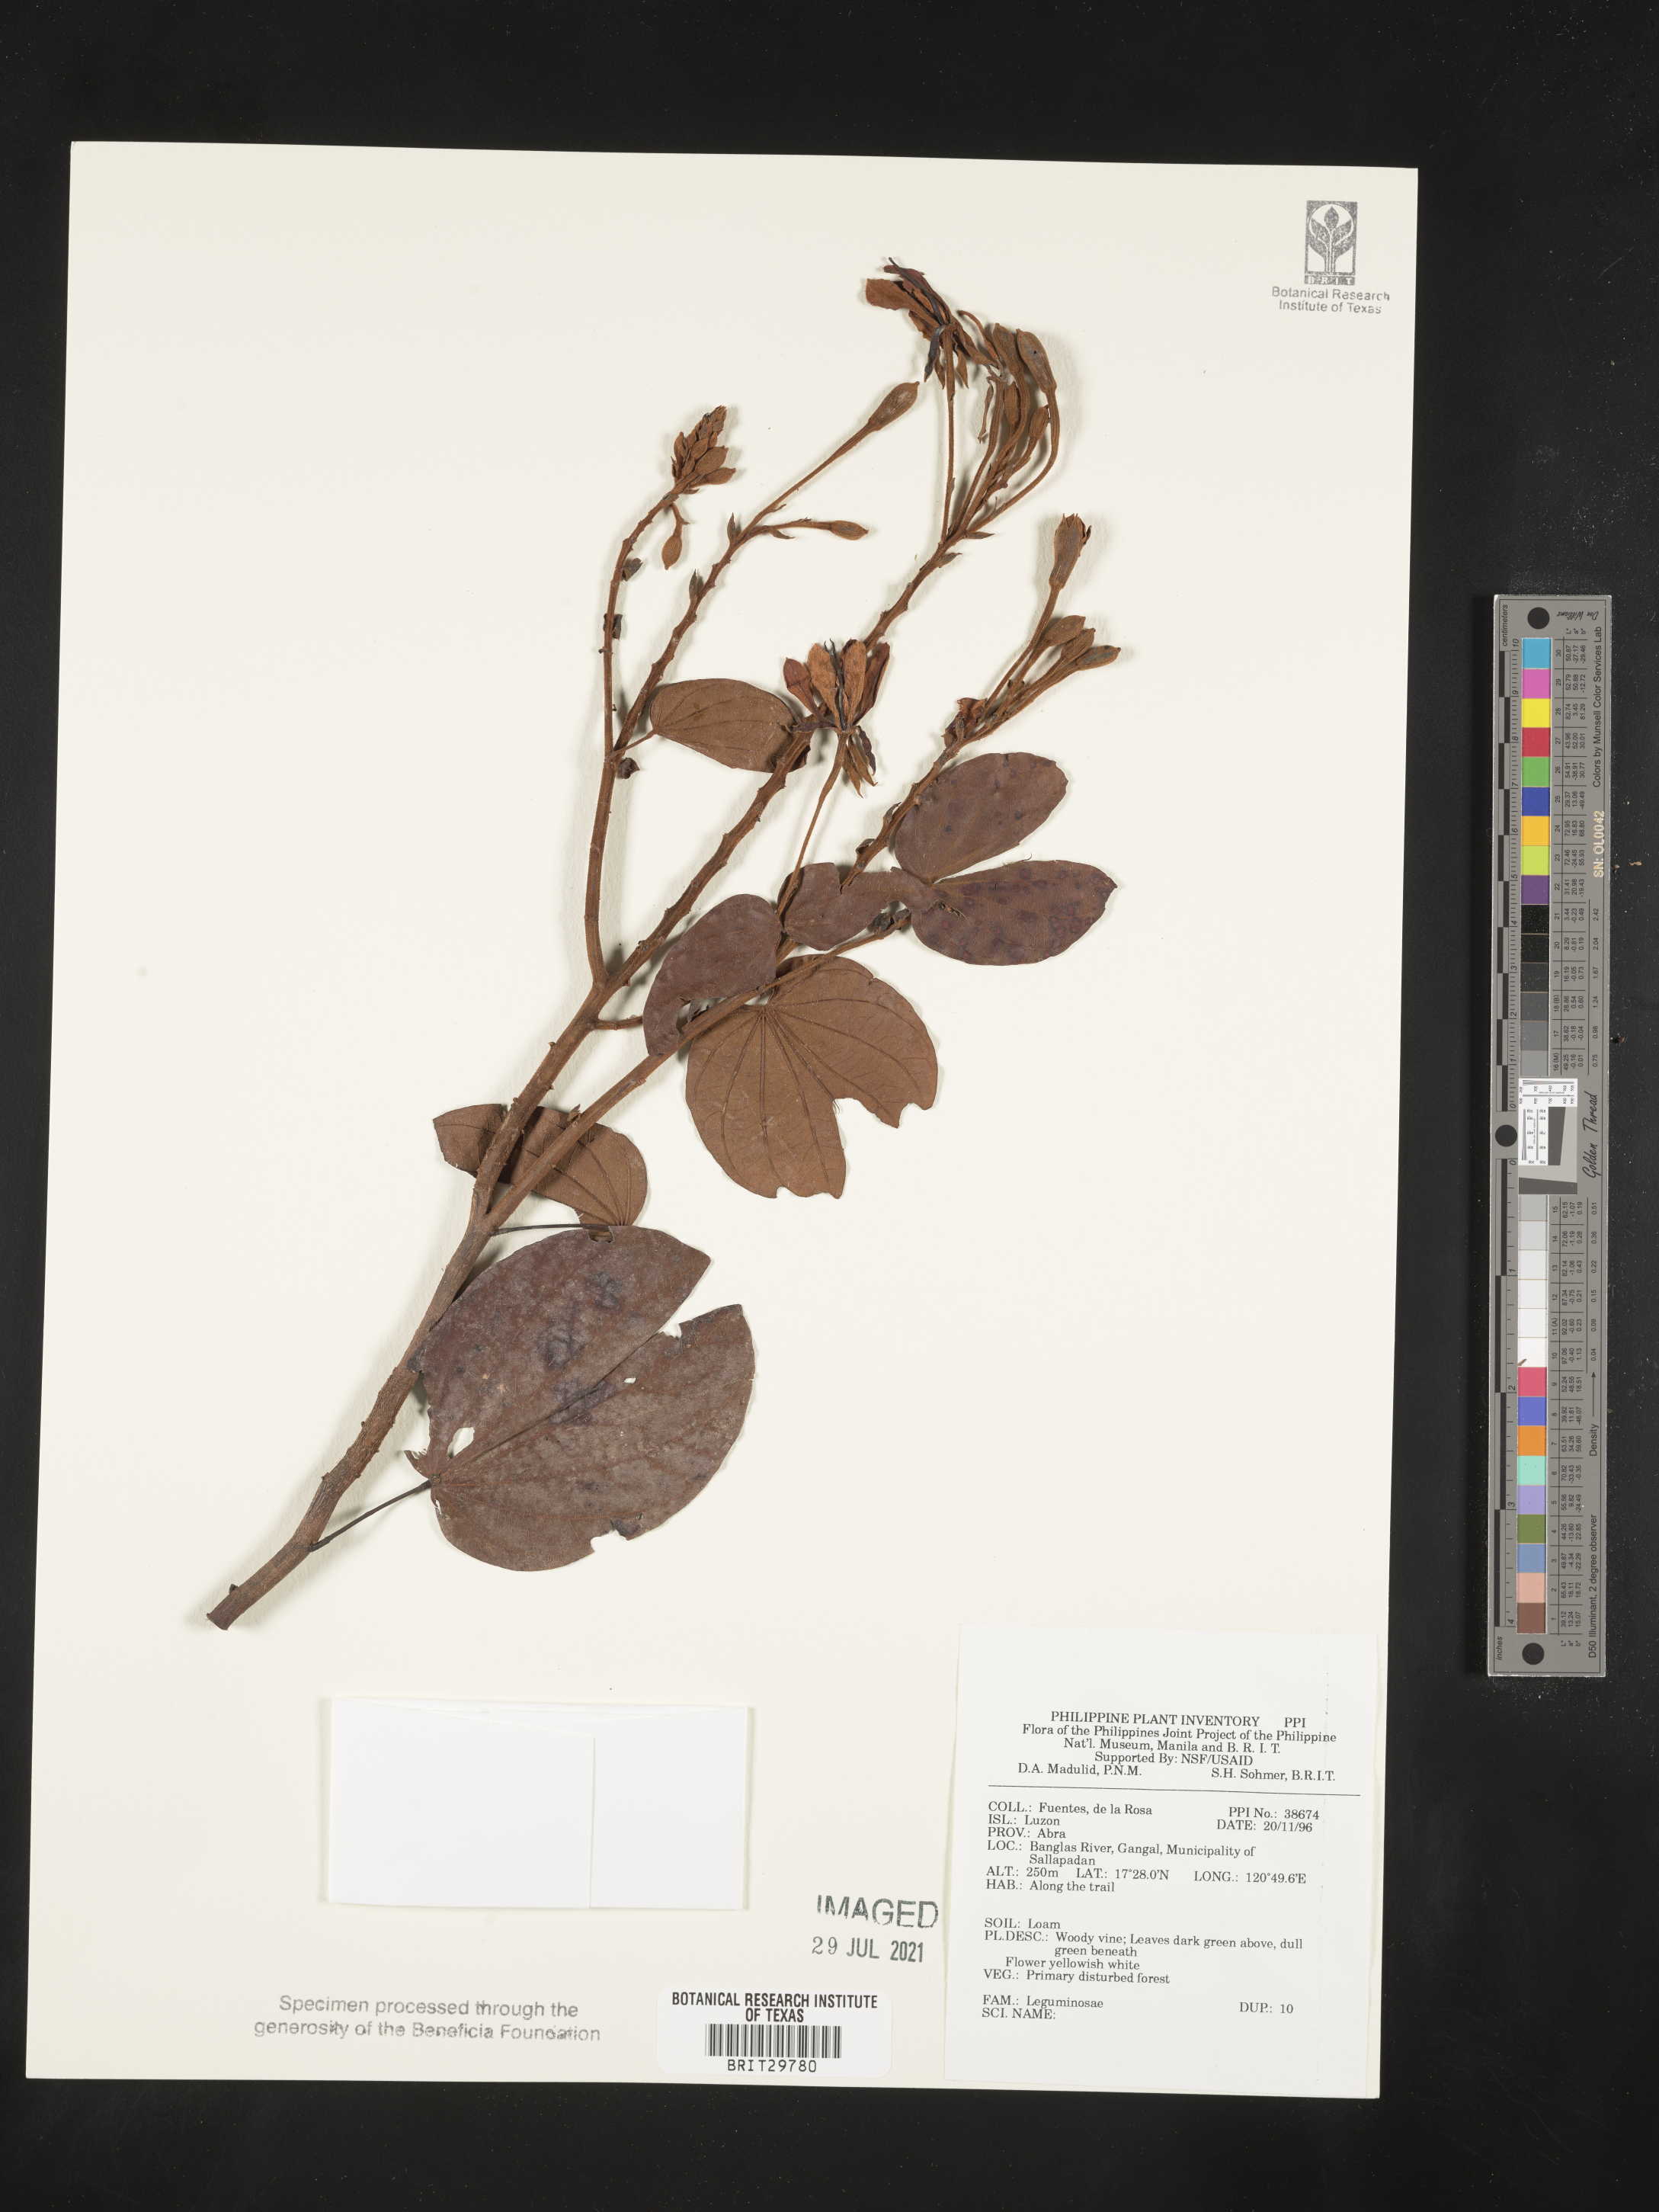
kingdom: Plantae
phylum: Tracheophyta
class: Magnoliopsida
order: Fabales
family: Fabaceae
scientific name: Fabaceae
